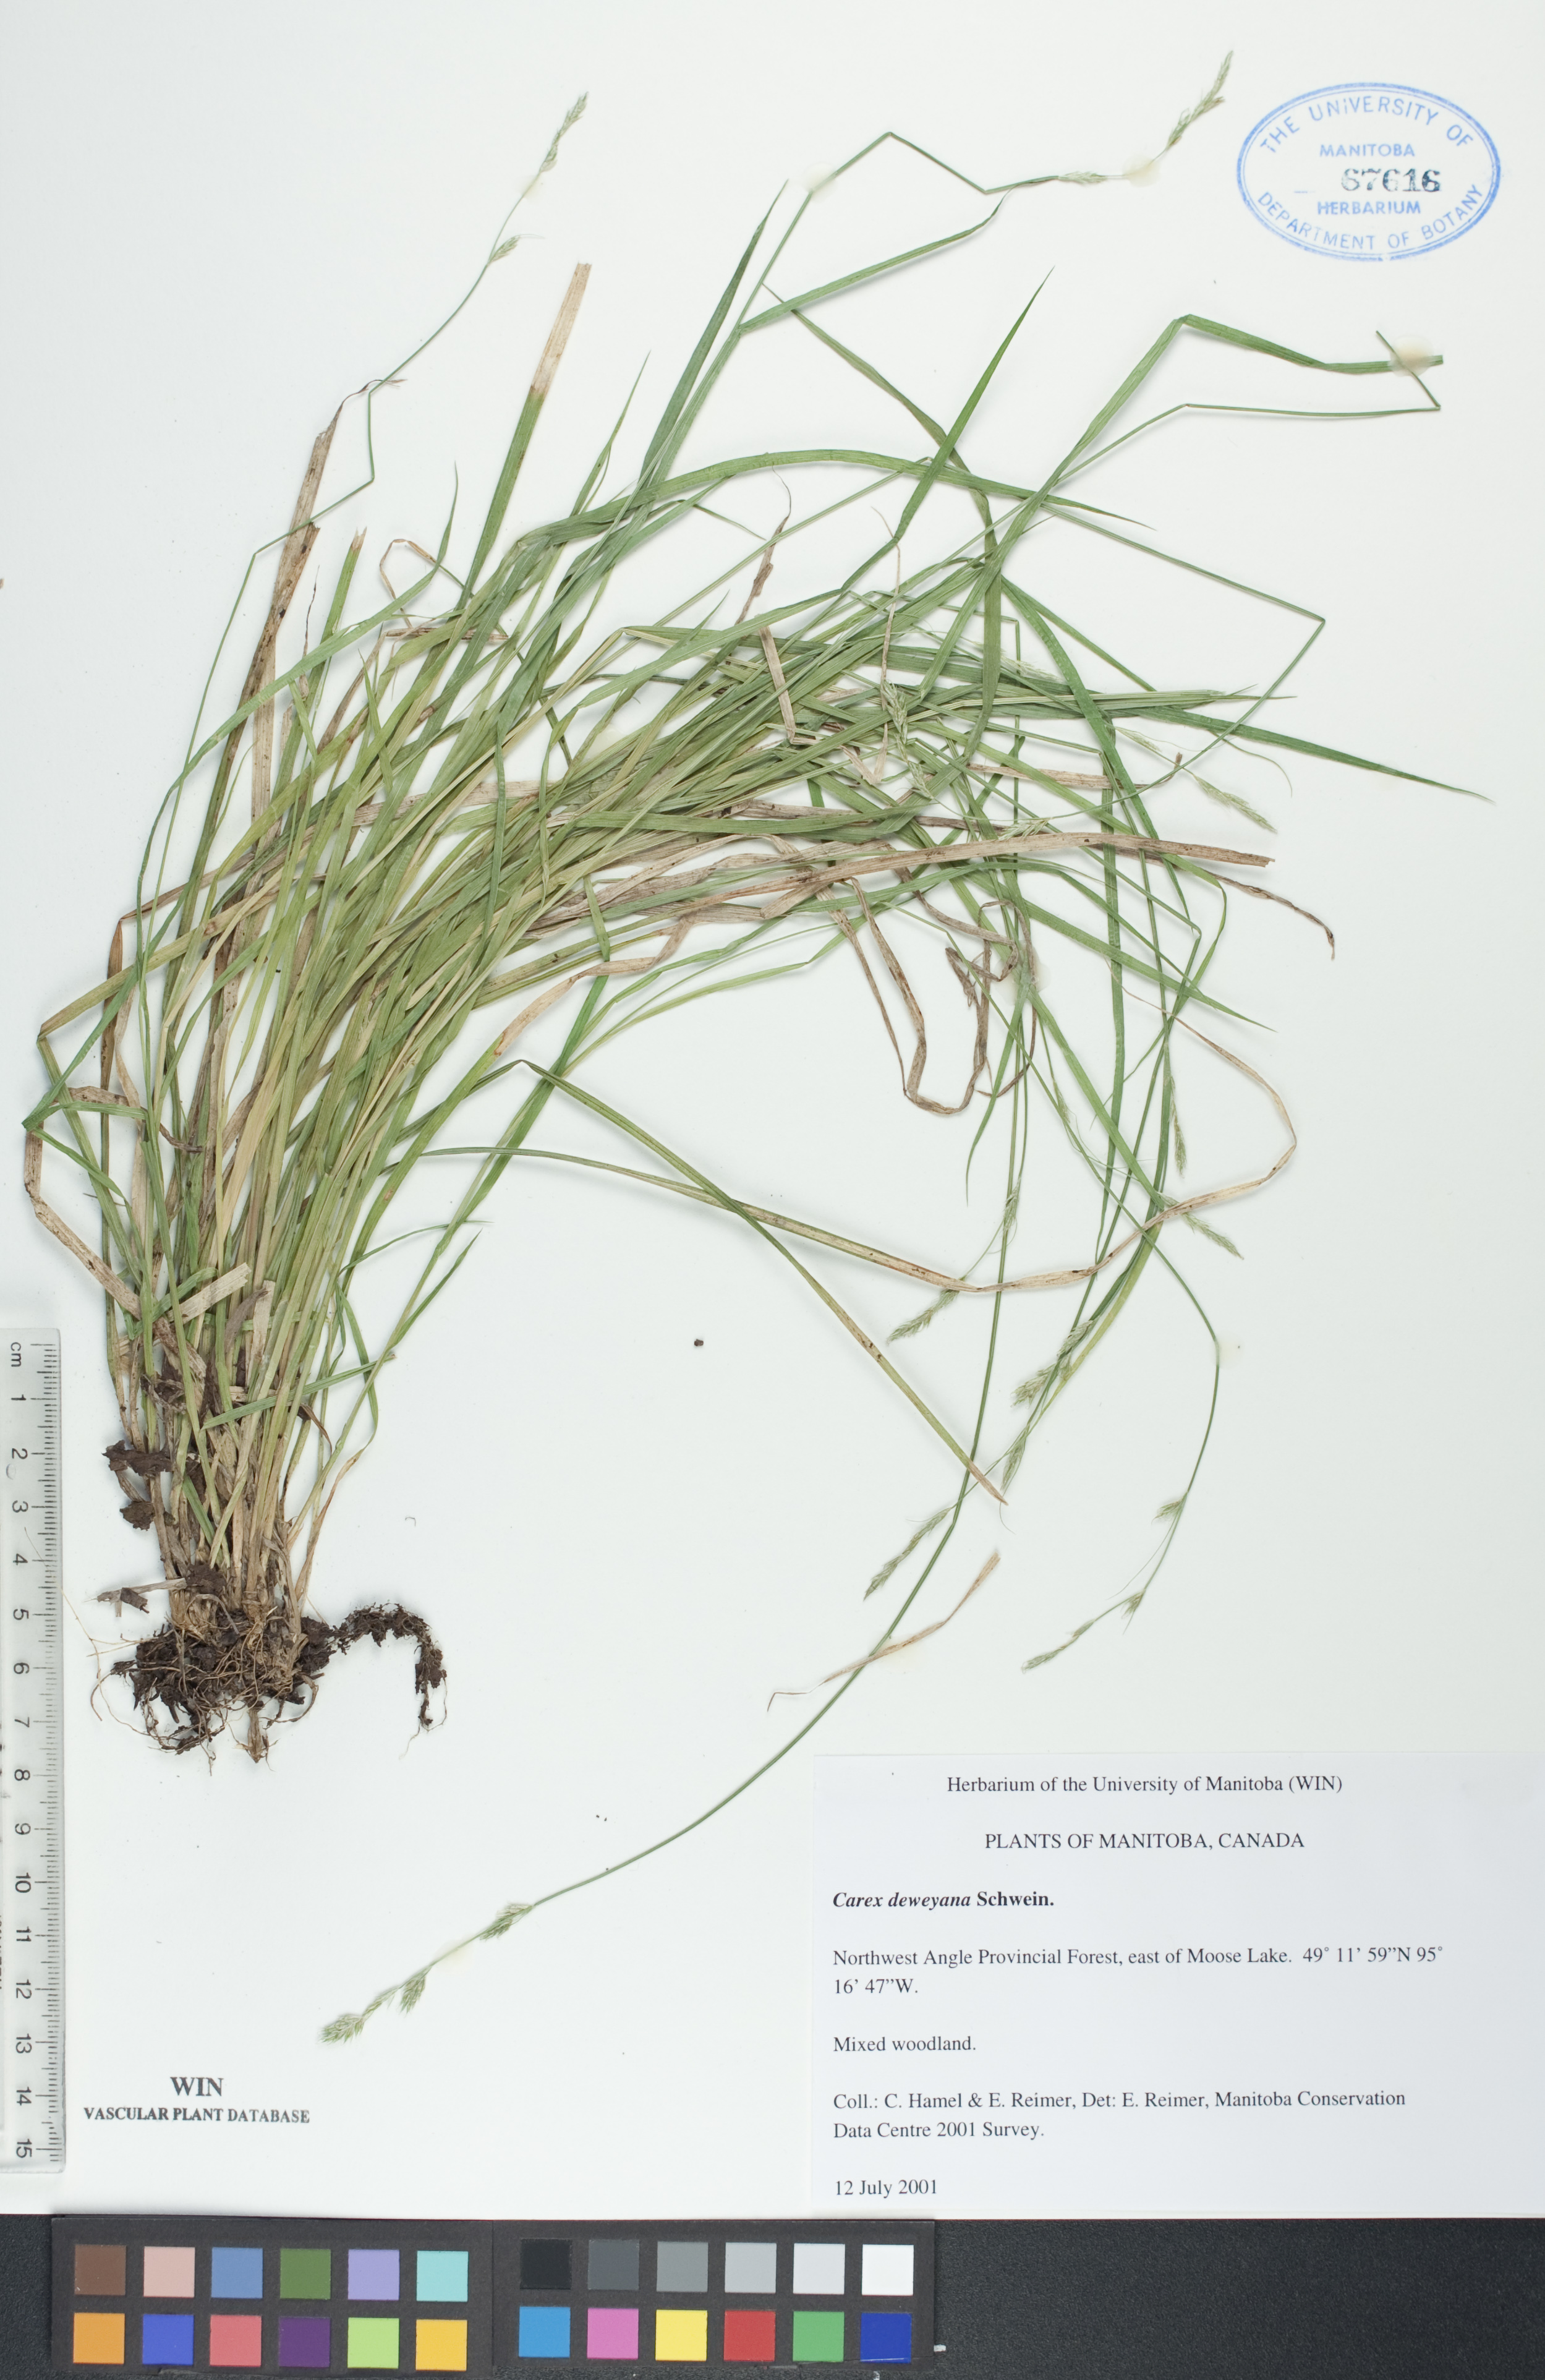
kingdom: Plantae
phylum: Tracheophyta
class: Liliopsida
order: Poales
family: Cyperaceae
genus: Carex
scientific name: Carex deweyana
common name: Dewey's sedge
